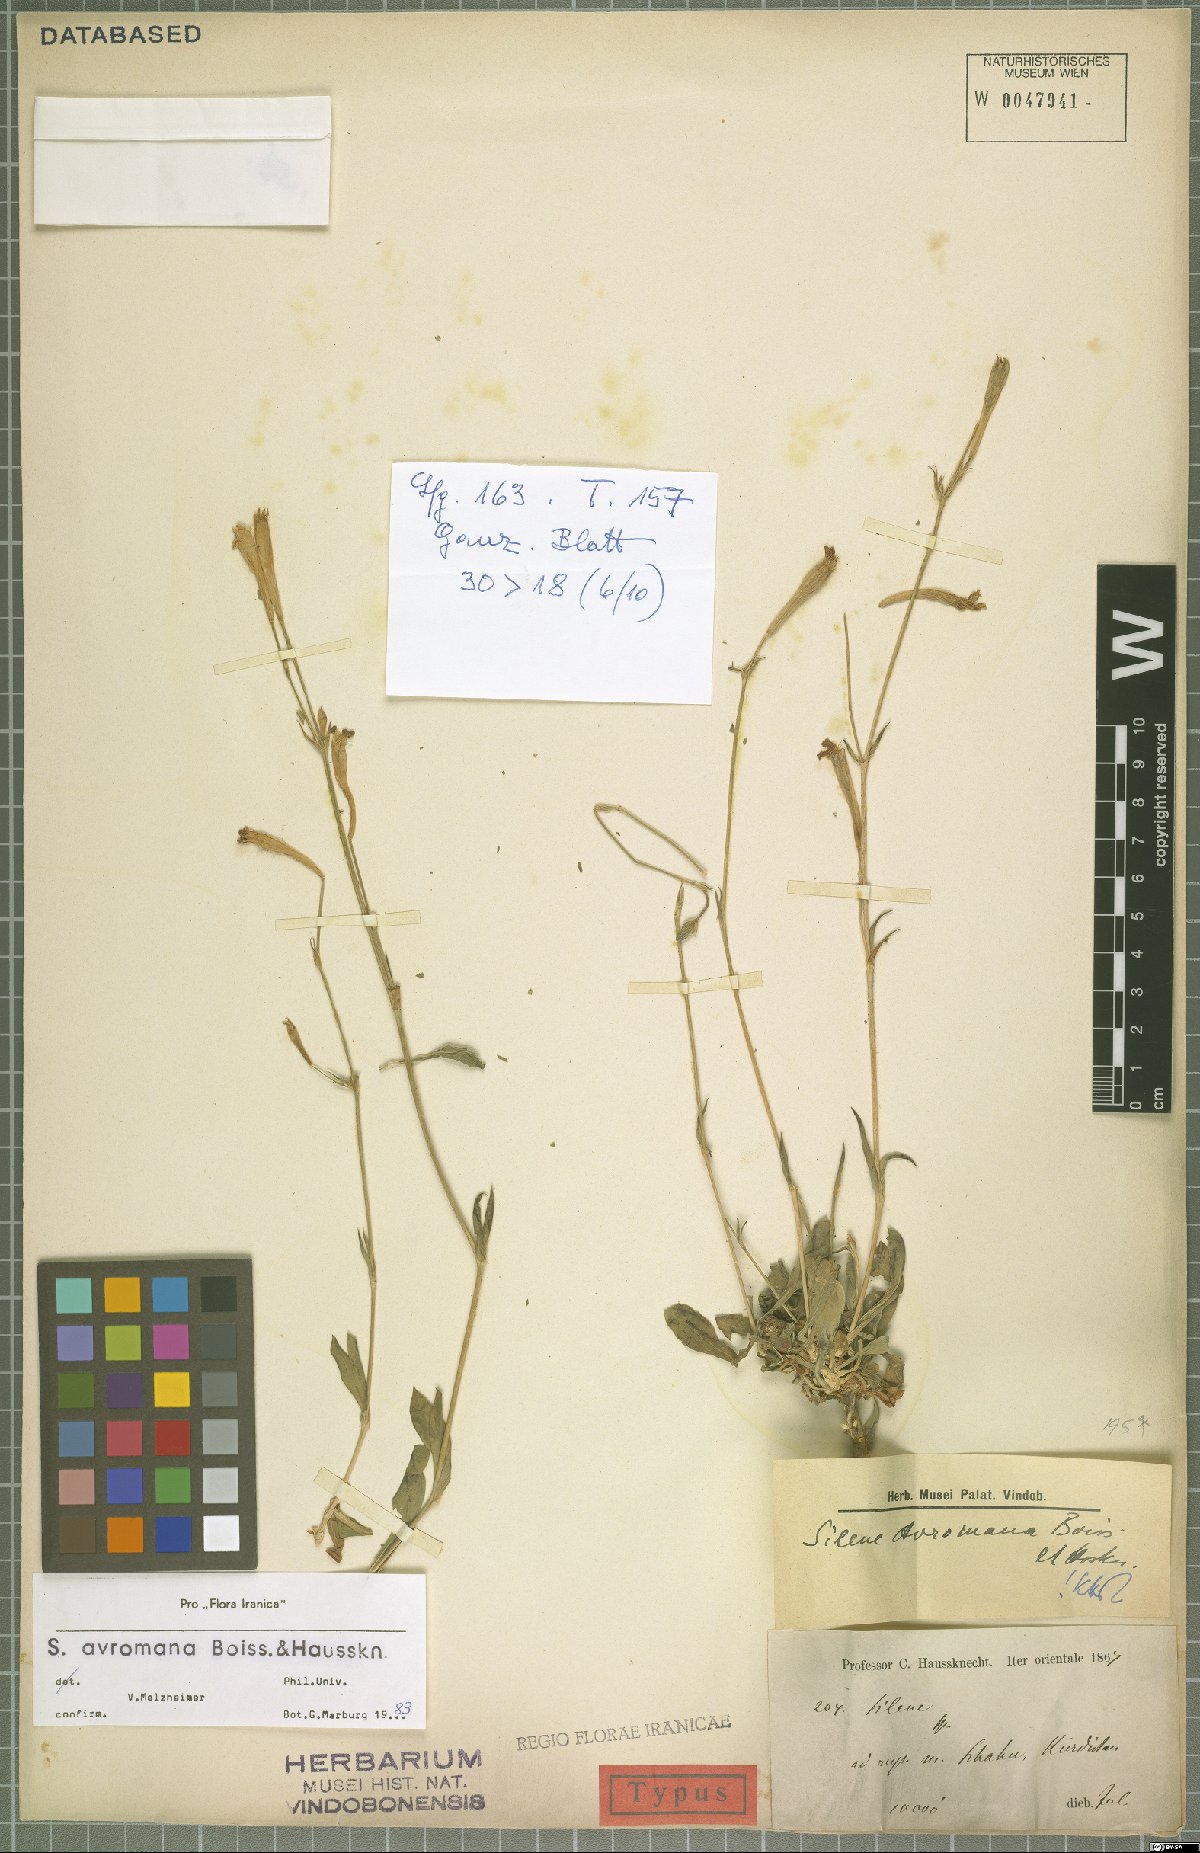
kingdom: Plantae
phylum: Tracheophyta
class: Magnoliopsida
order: Caryophyllales
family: Caryophyllaceae
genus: Silene
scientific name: Silene avromana
